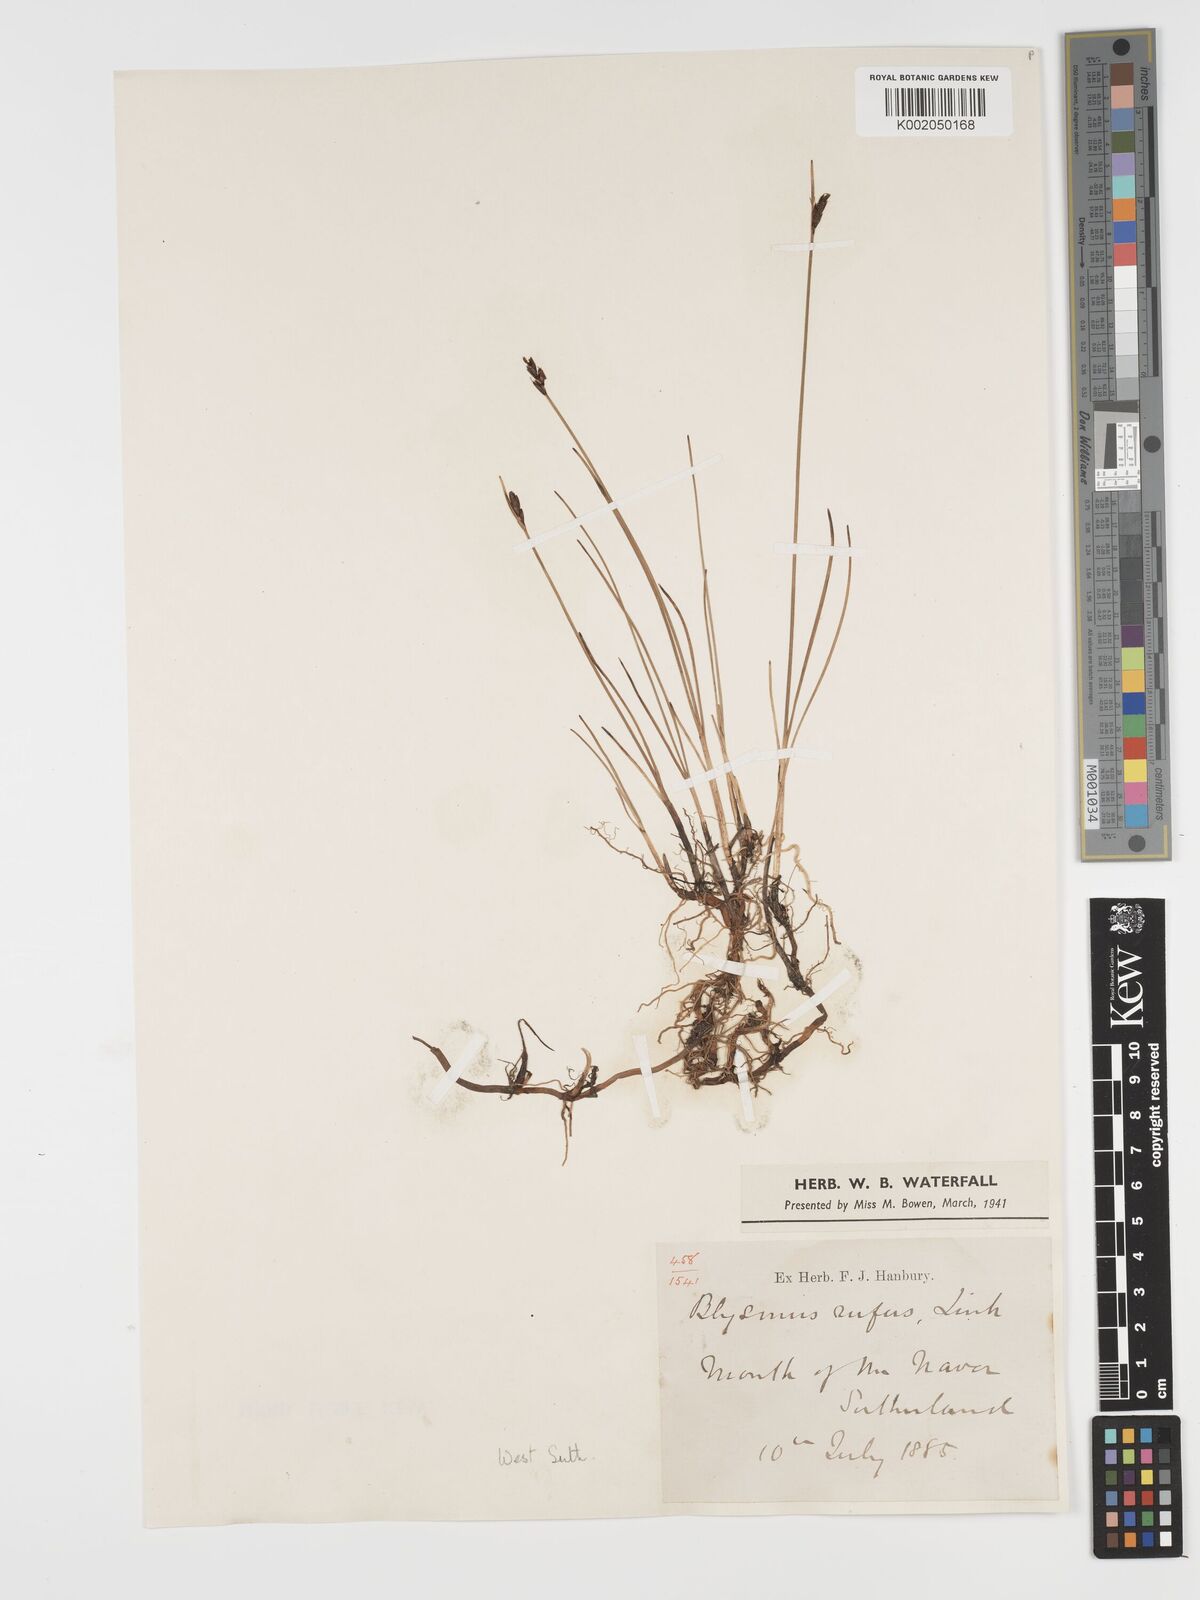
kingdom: Plantae
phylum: Tracheophyta
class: Liliopsida
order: Poales
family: Cyperaceae
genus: Blysmus
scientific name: Blysmus rufus
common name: Saltmarsh flat-sedge
